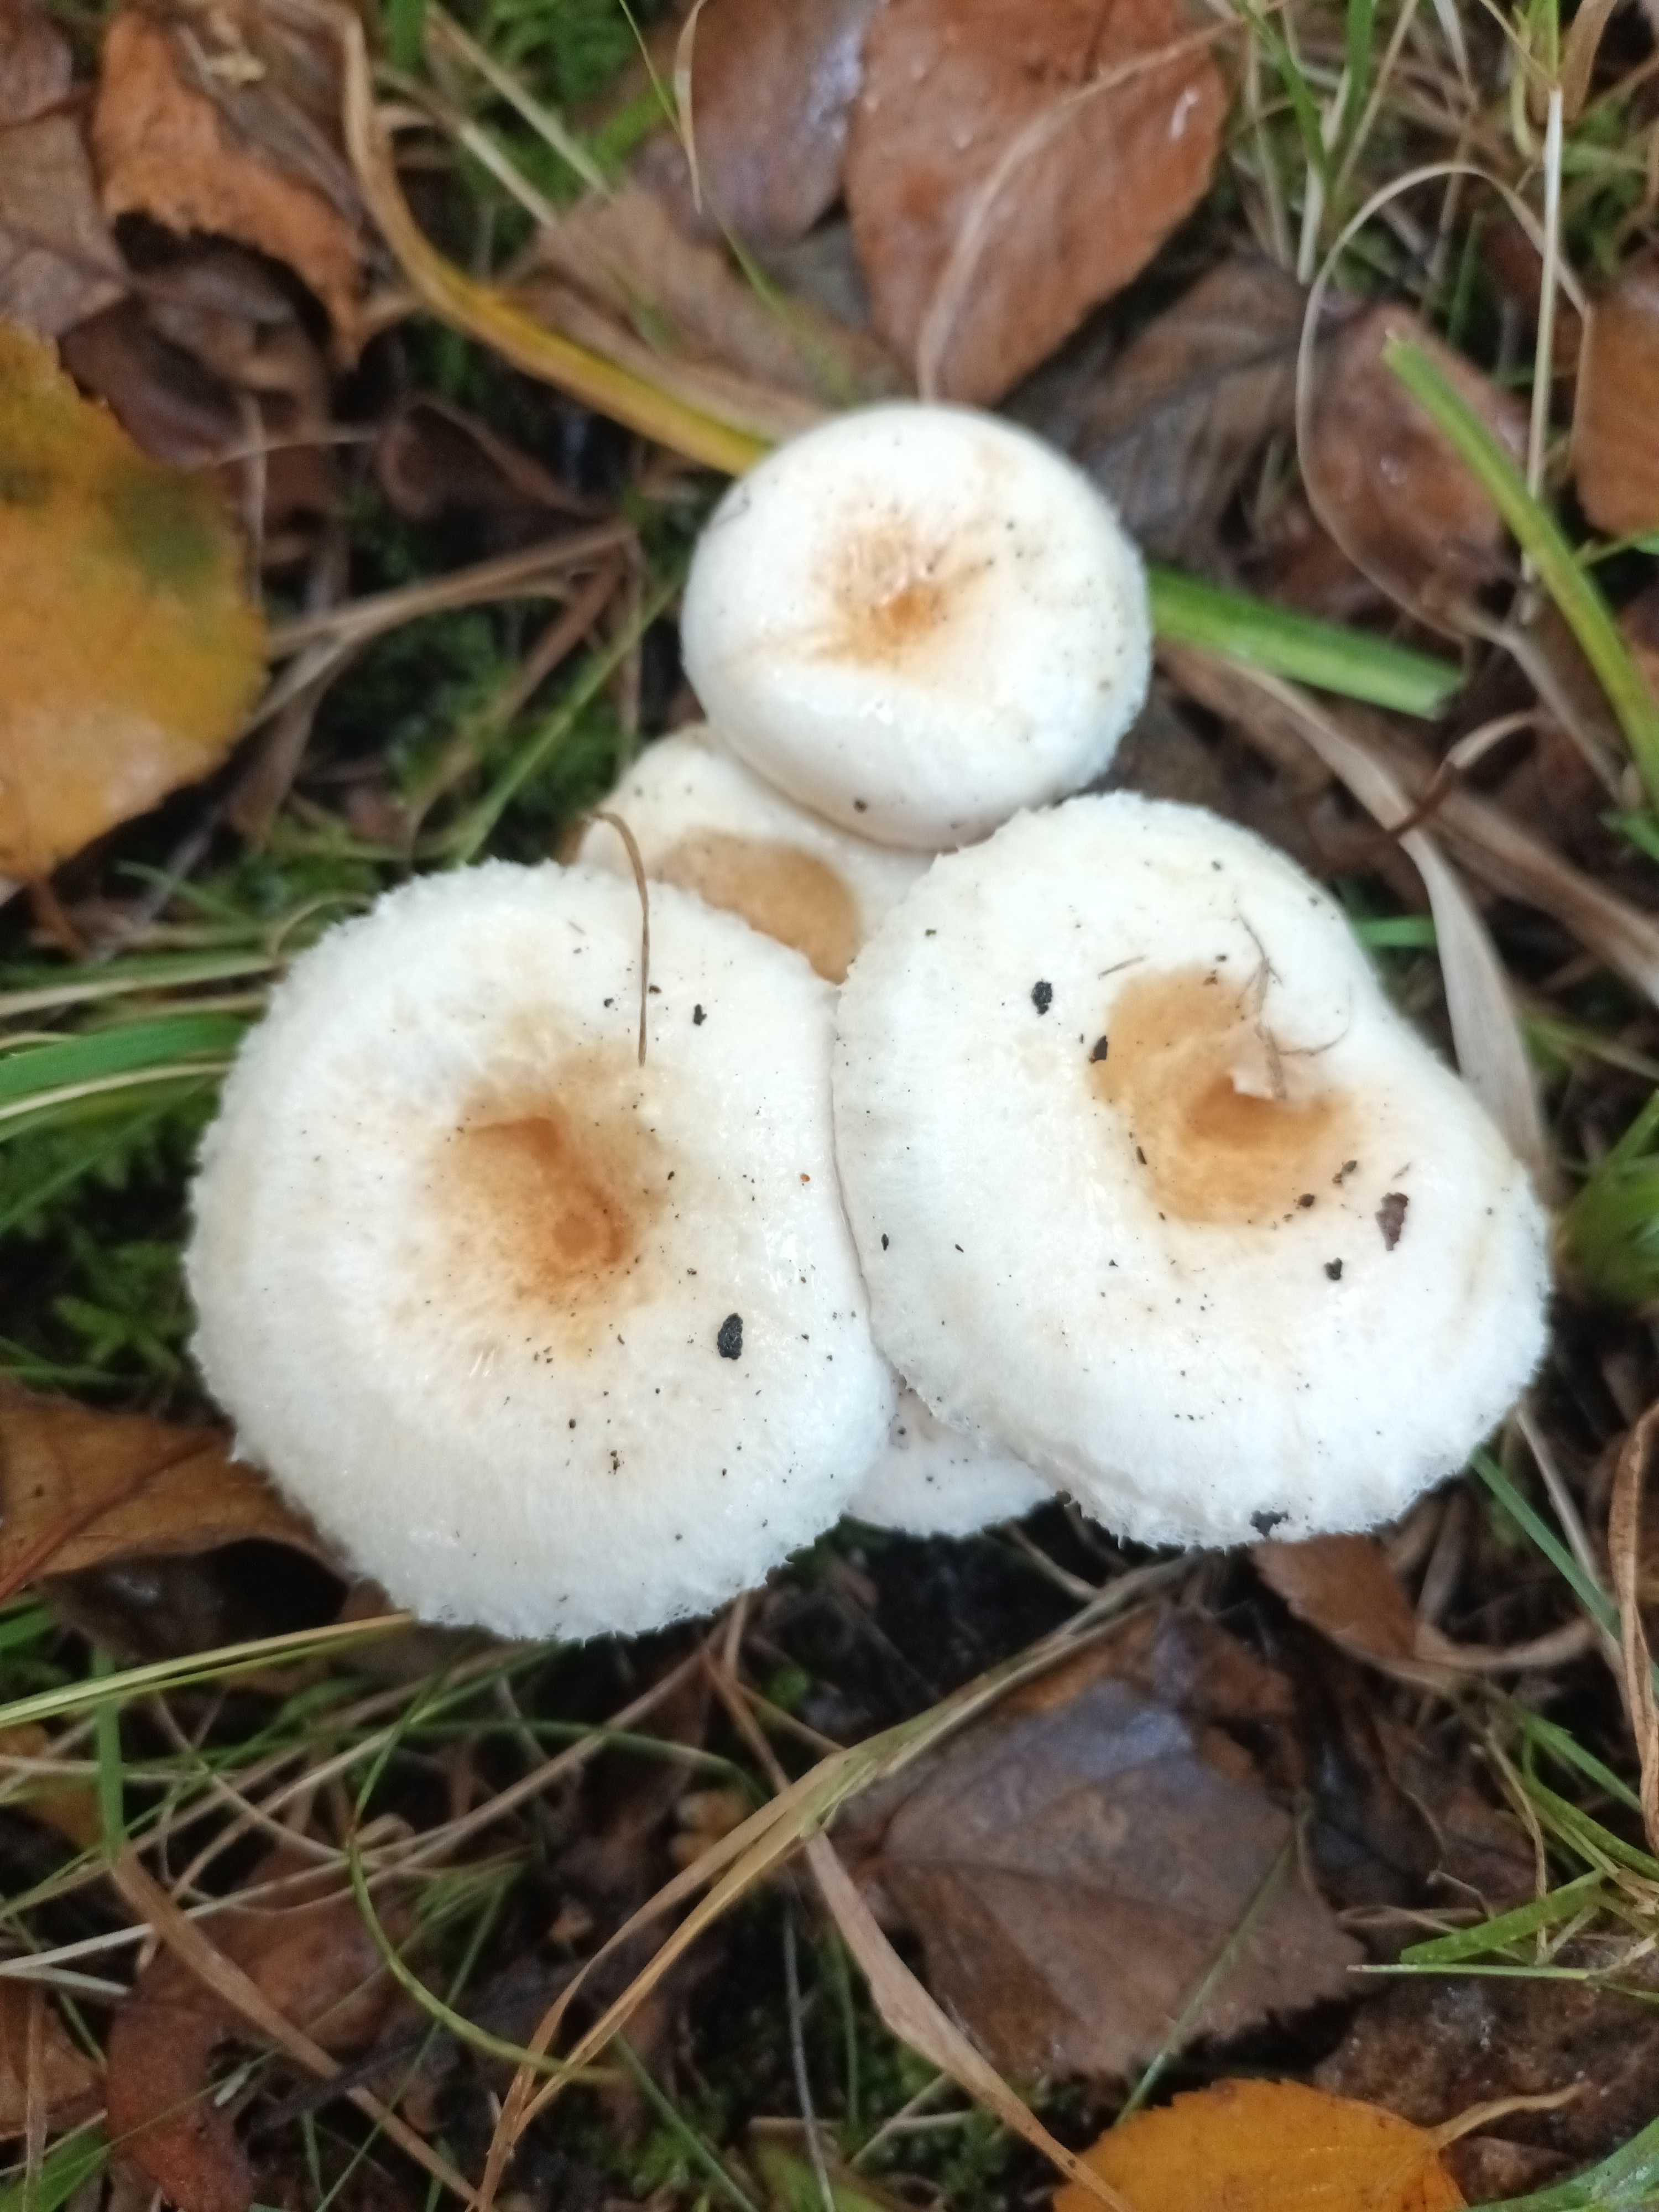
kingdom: Fungi
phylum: Basidiomycota
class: Agaricomycetes
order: Russulales
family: Russulaceae
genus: Lactarius
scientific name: Lactarius scoticus
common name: tørve-mælkehat
